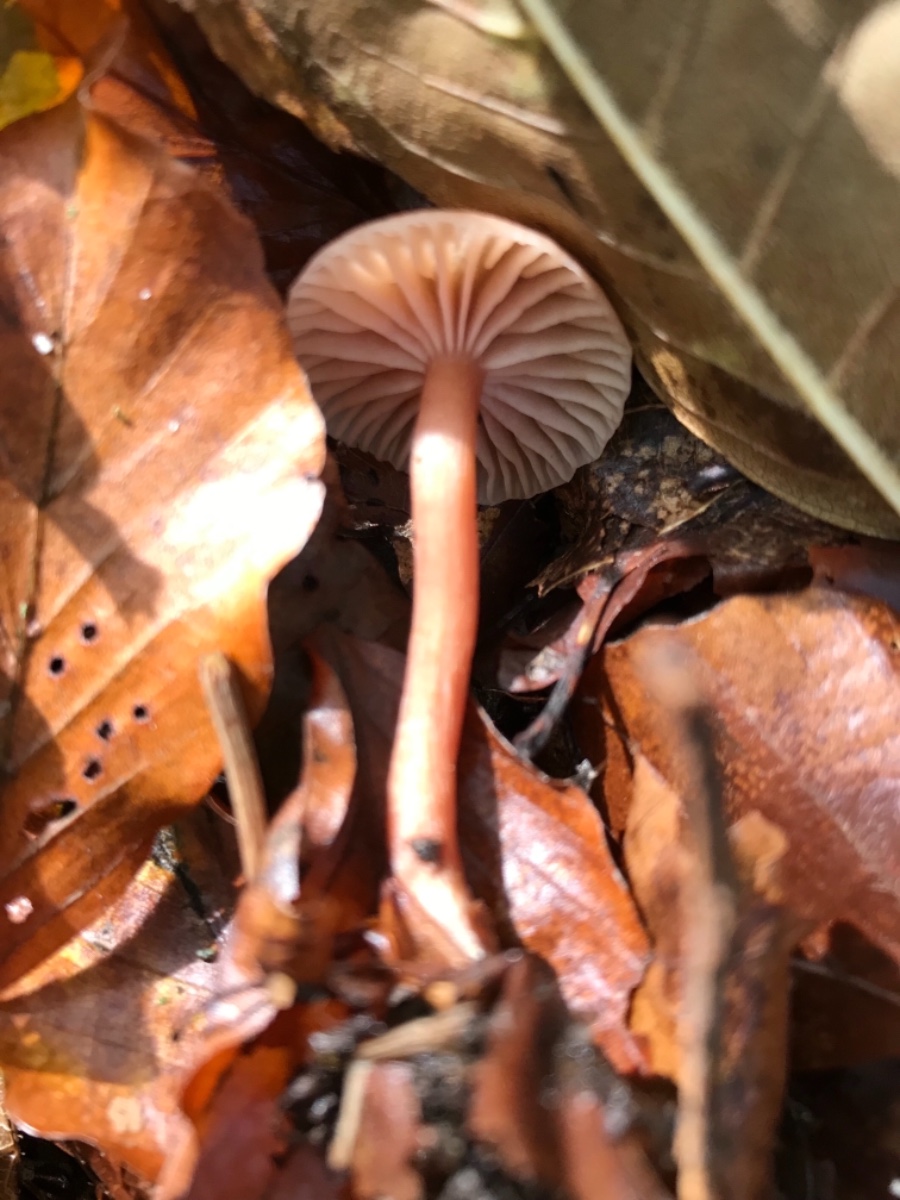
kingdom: Fungi
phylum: Basidiomycota
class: Agaricomycetes
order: Agaricales
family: Hydnangiaceae
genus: Laccaria
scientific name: Laccaria laccata
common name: rød ametysthat
